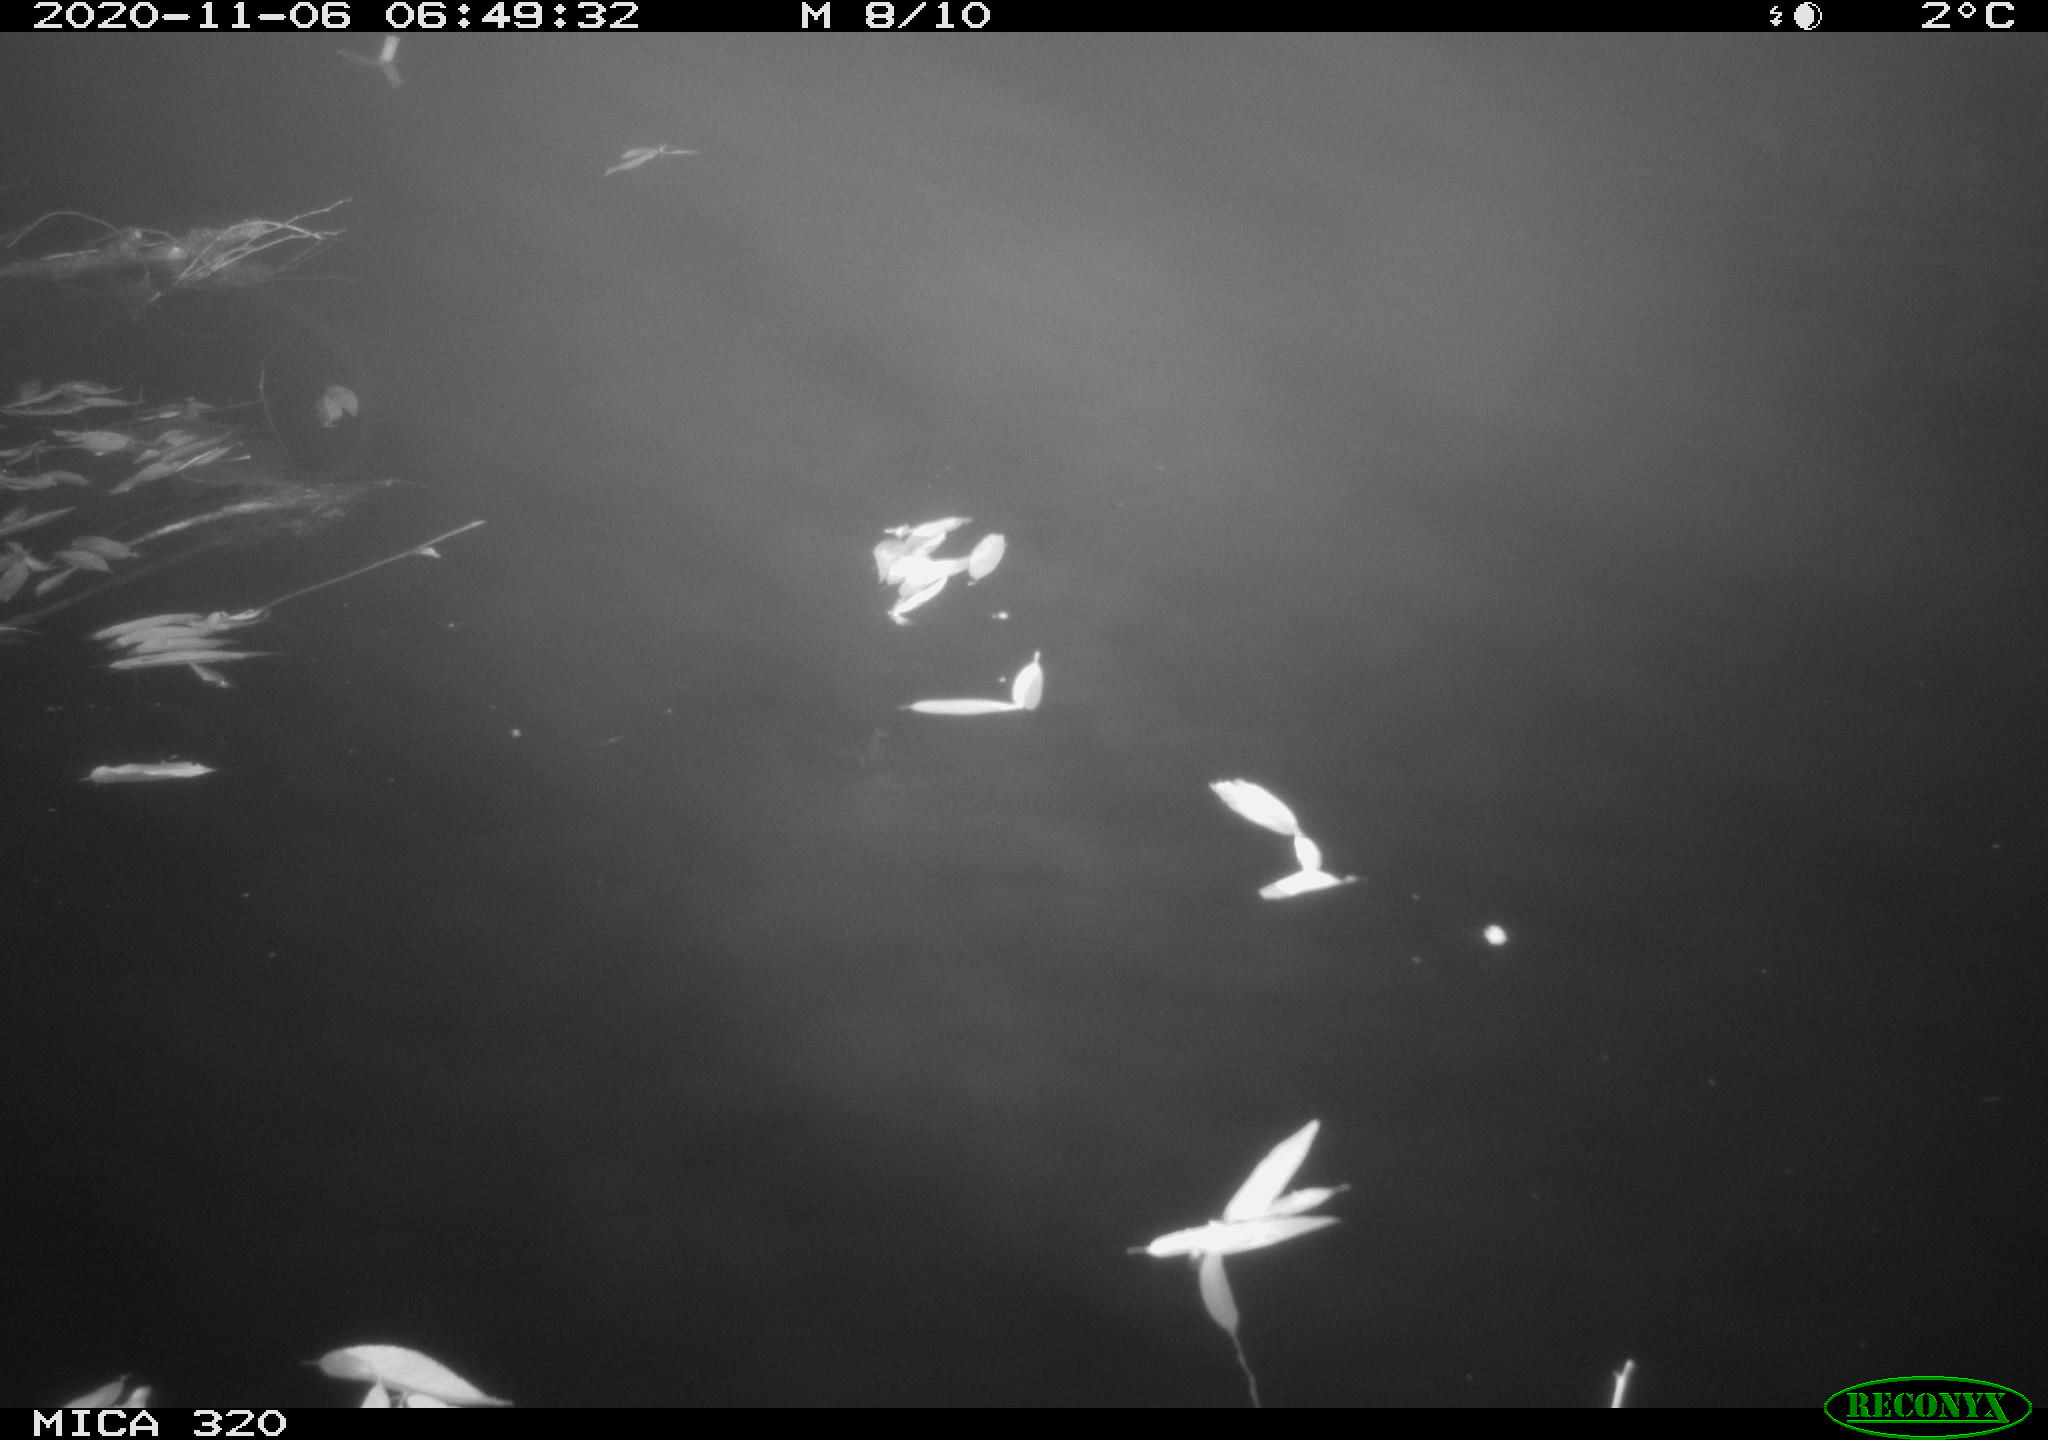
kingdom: Animalia
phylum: Chordata
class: Aves
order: Gruiformes
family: Rallidae
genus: Gallinula
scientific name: Gallinula chloropus
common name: Common moorhen
